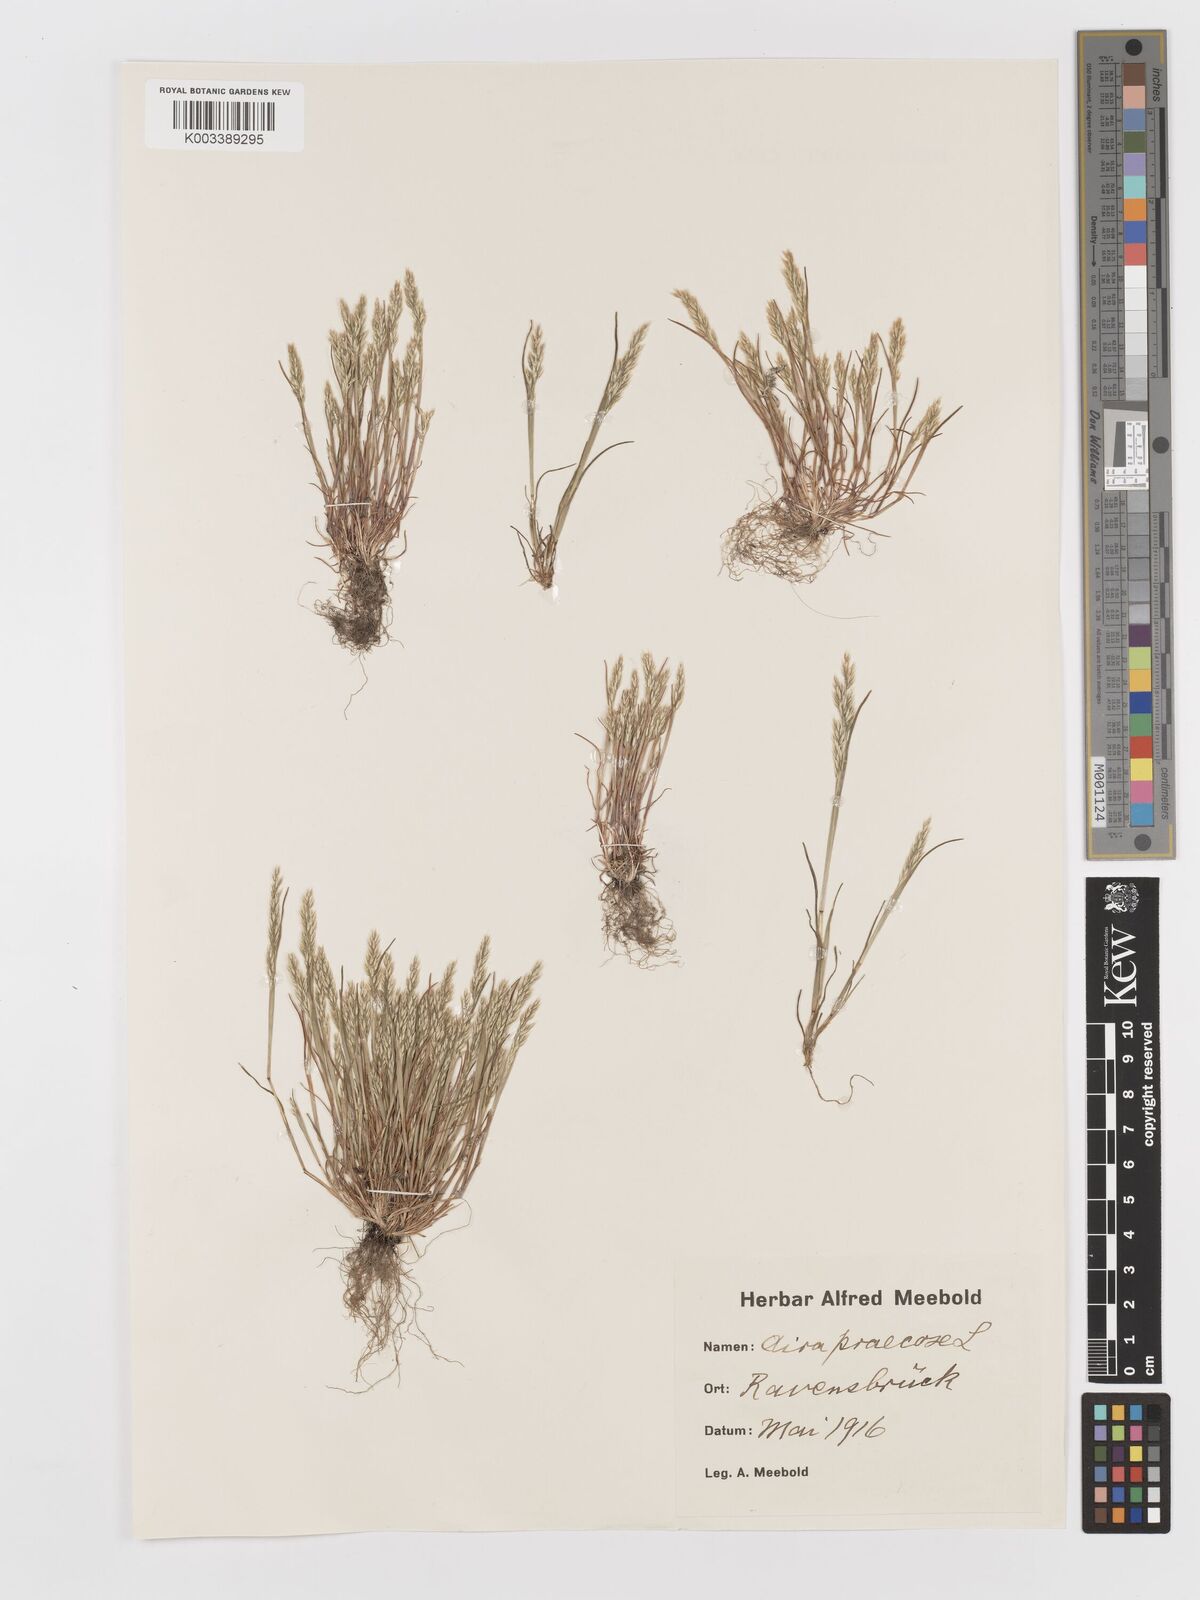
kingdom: Plantae
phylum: Tracheophyta
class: Liliopsida
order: Poales
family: Poaceae
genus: Aira
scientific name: Aira praecox
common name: Early hair-grass
